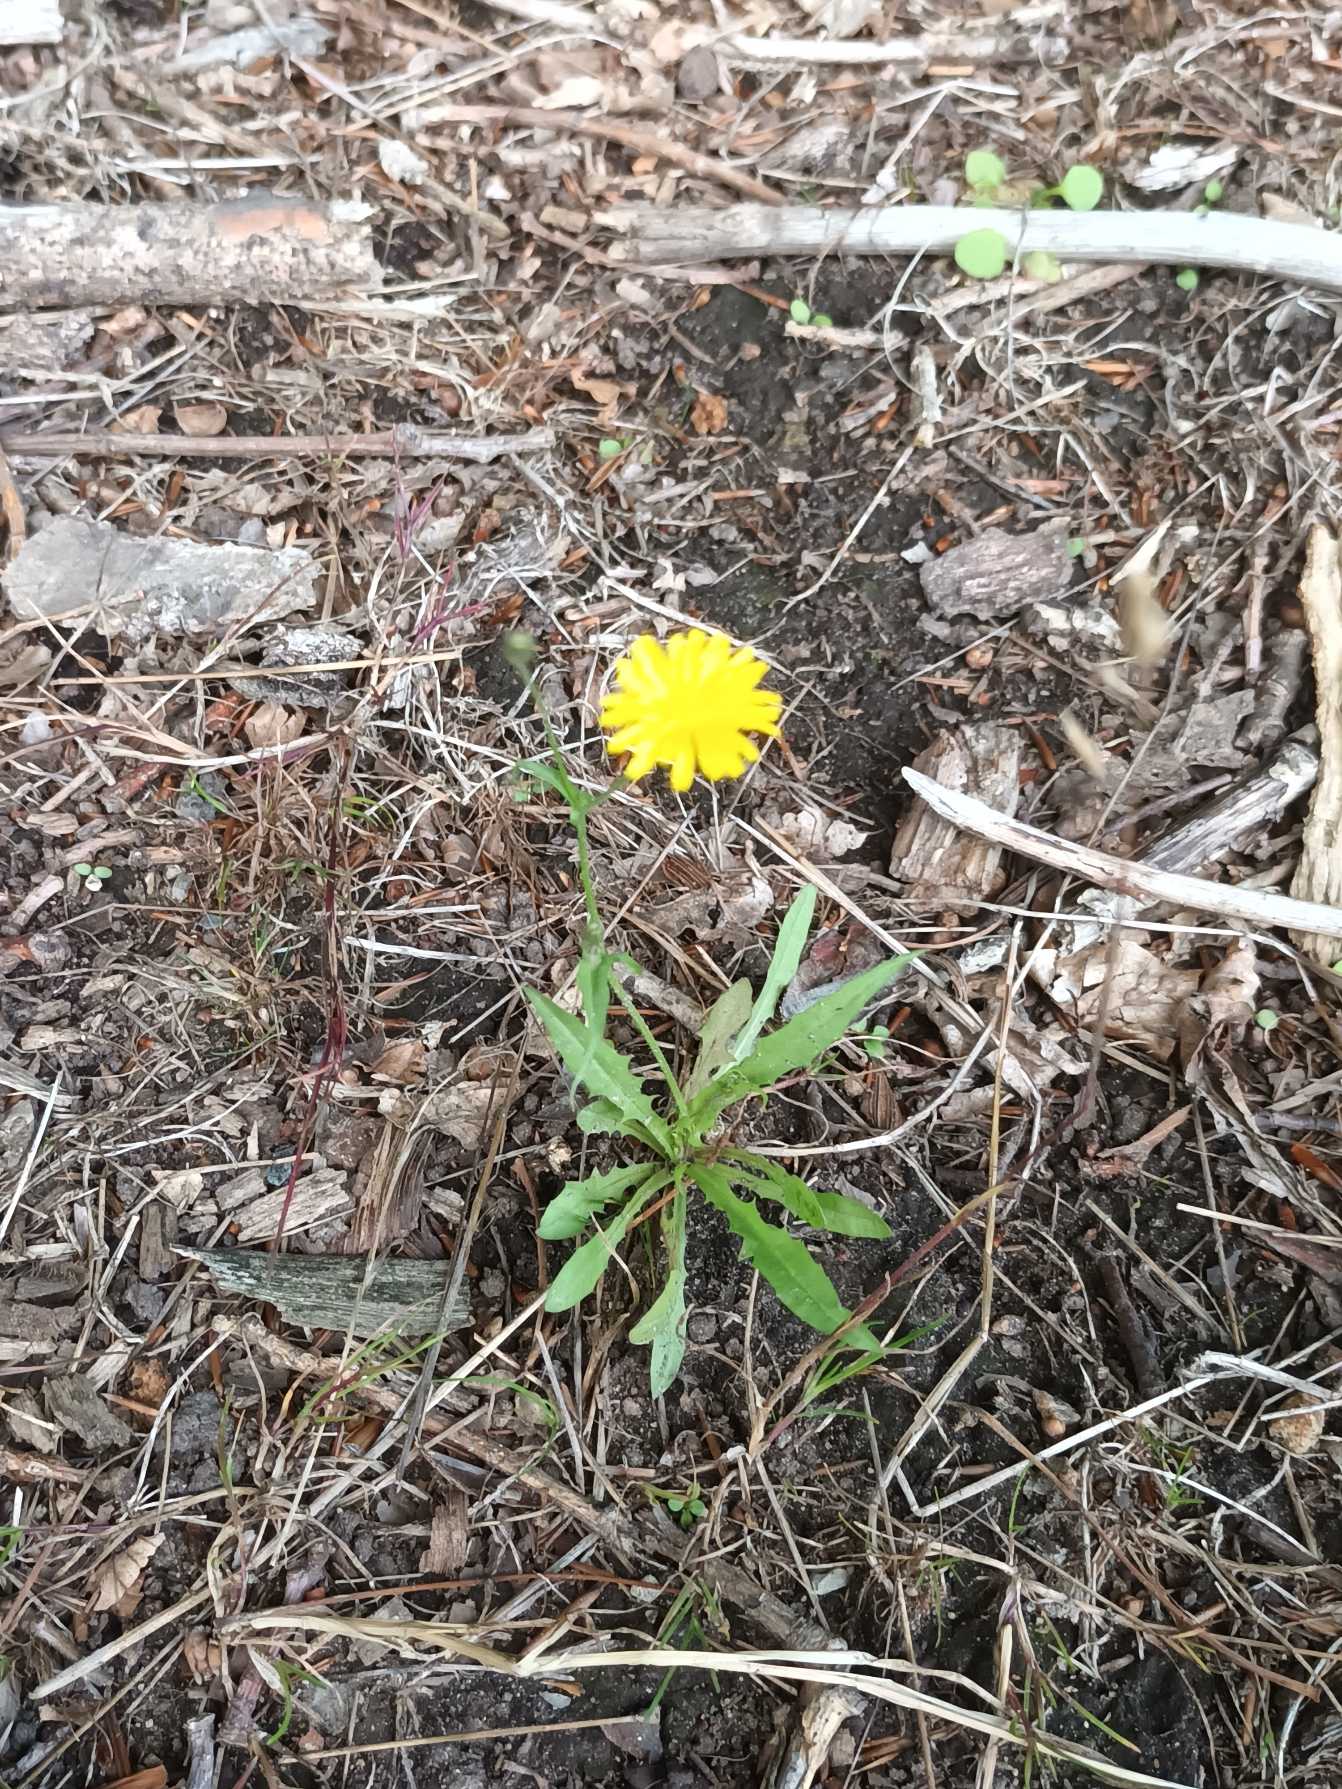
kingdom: Plantae
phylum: Tracheophyta
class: Magnoliopsida
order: Asterales
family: Asteraceae
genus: Crepis
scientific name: Crepis capillaris
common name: Grøn høgeskæg
